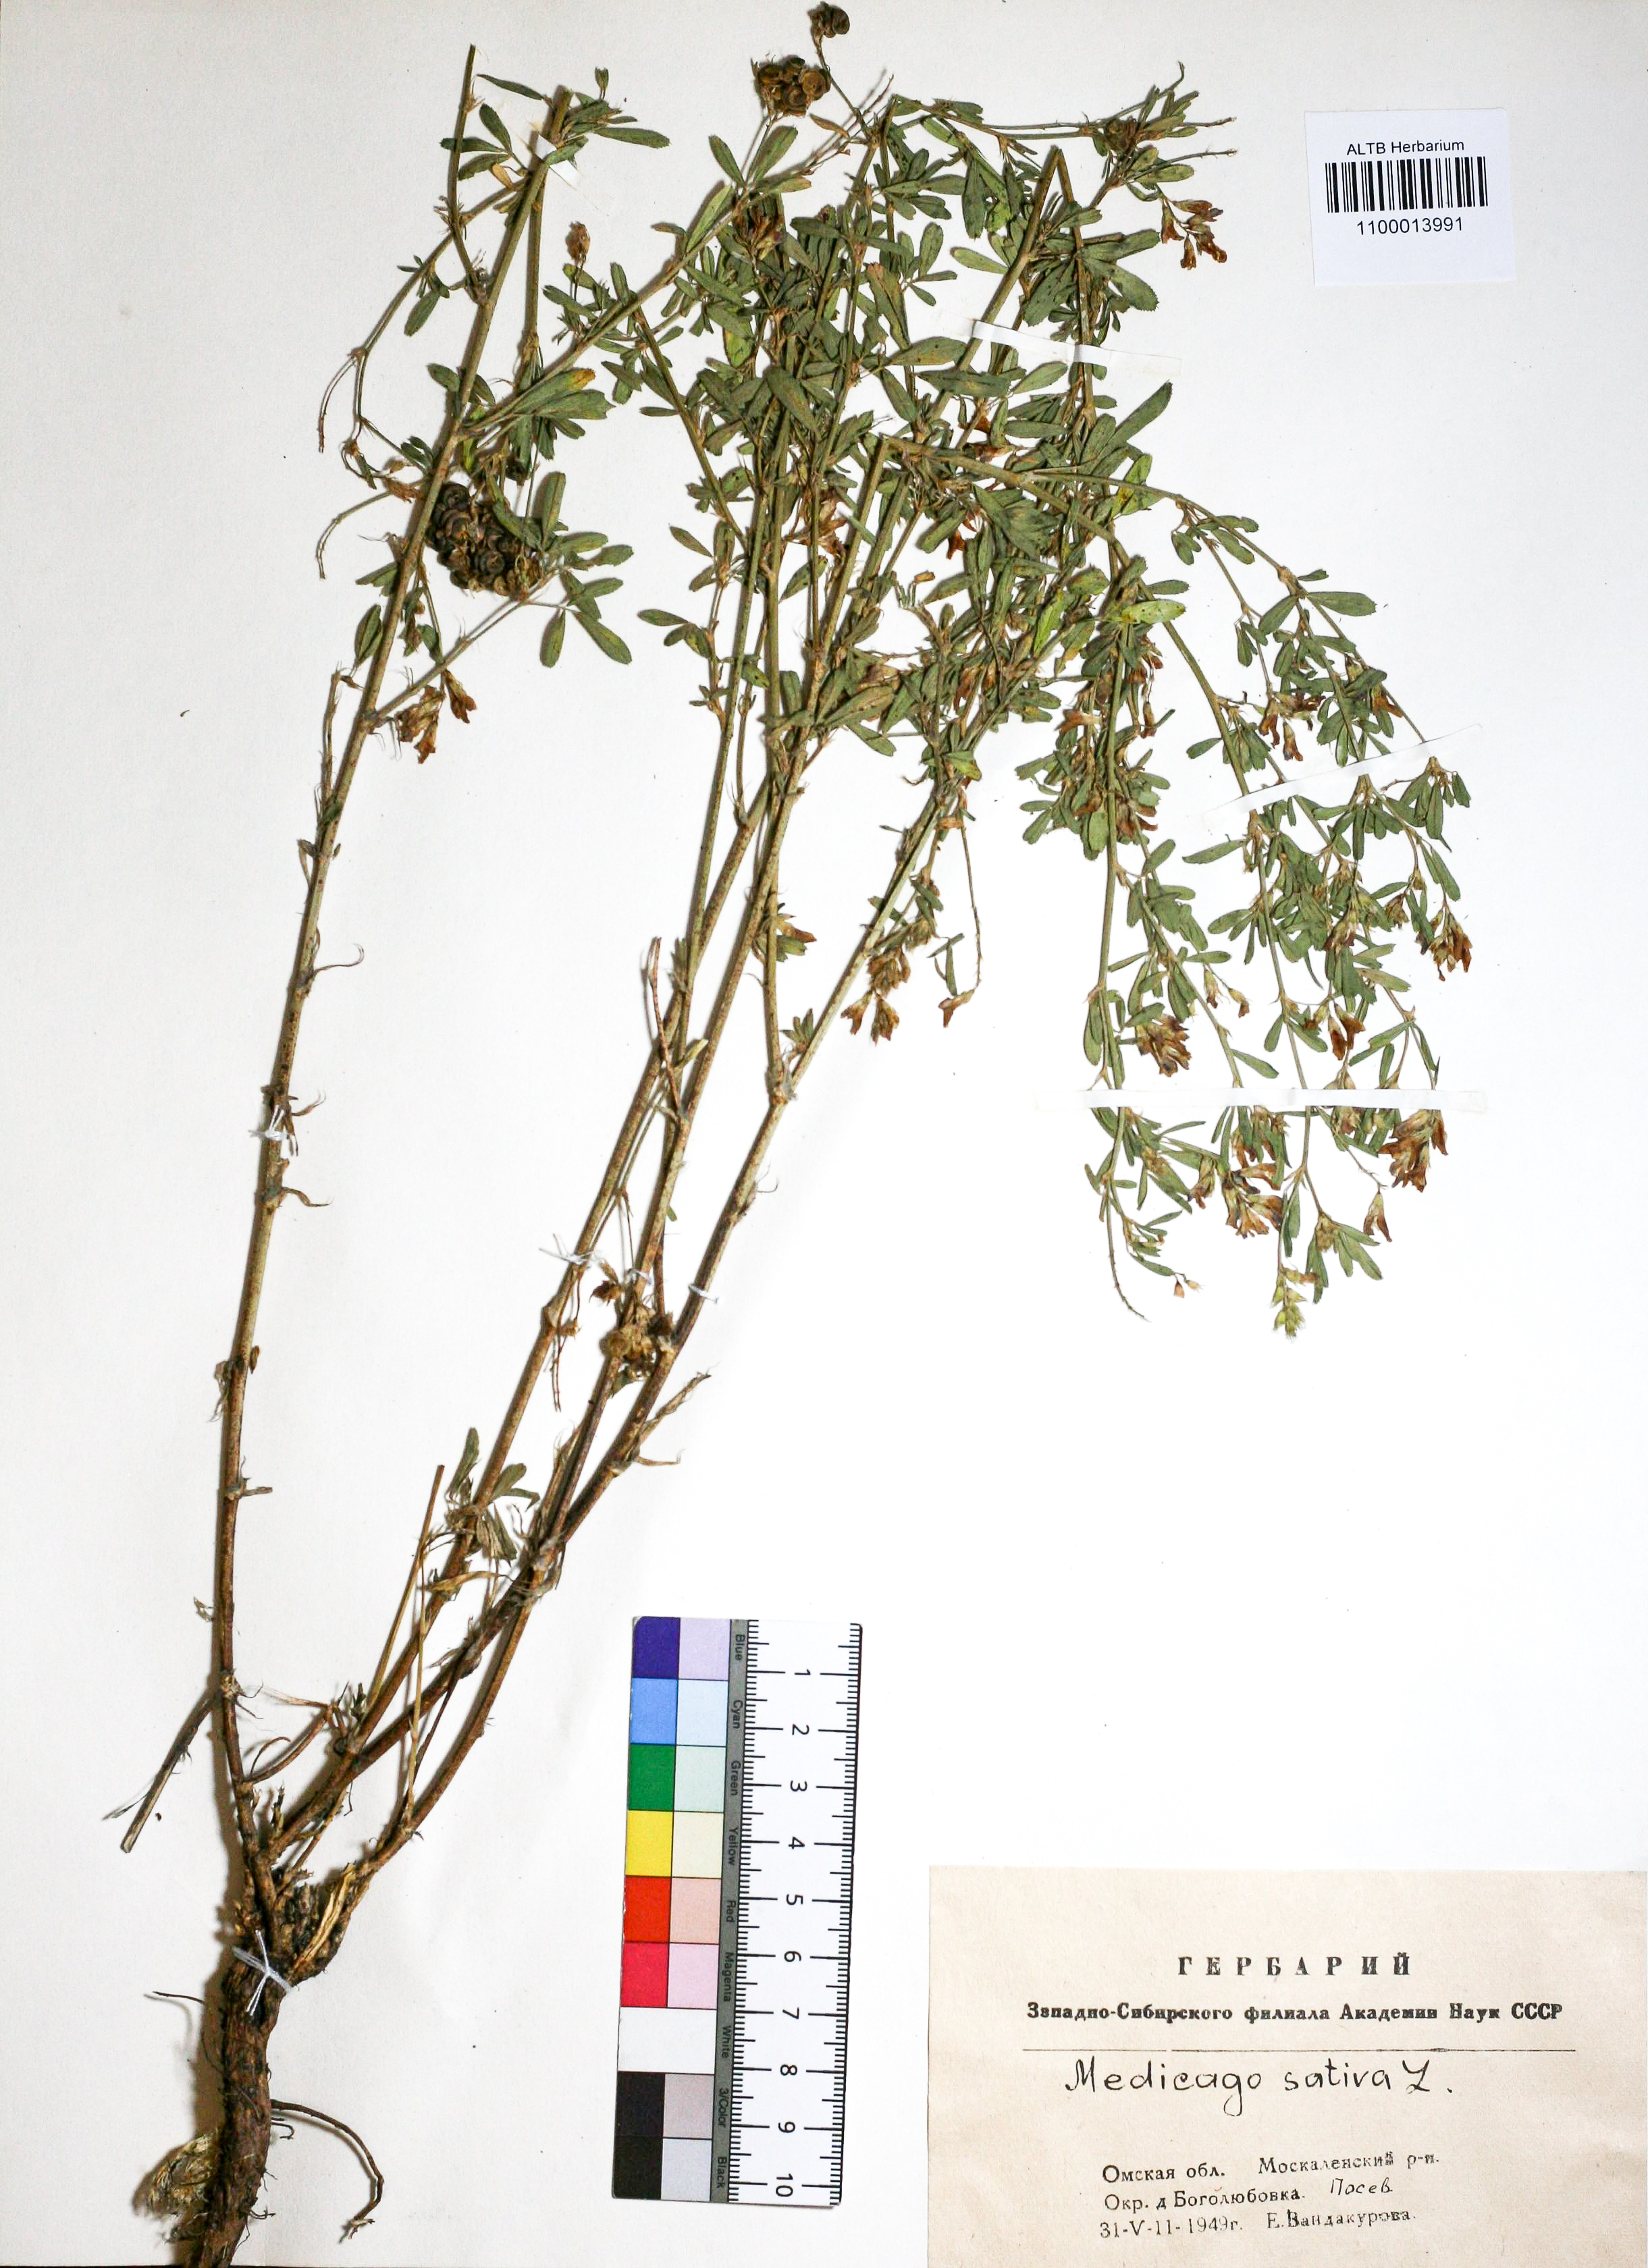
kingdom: Plantae
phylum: Tracheophyta
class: Magnoliopsida
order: Fabales
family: Fabaceae
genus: Medicago
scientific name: Medicago sativa
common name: Alfalfa
